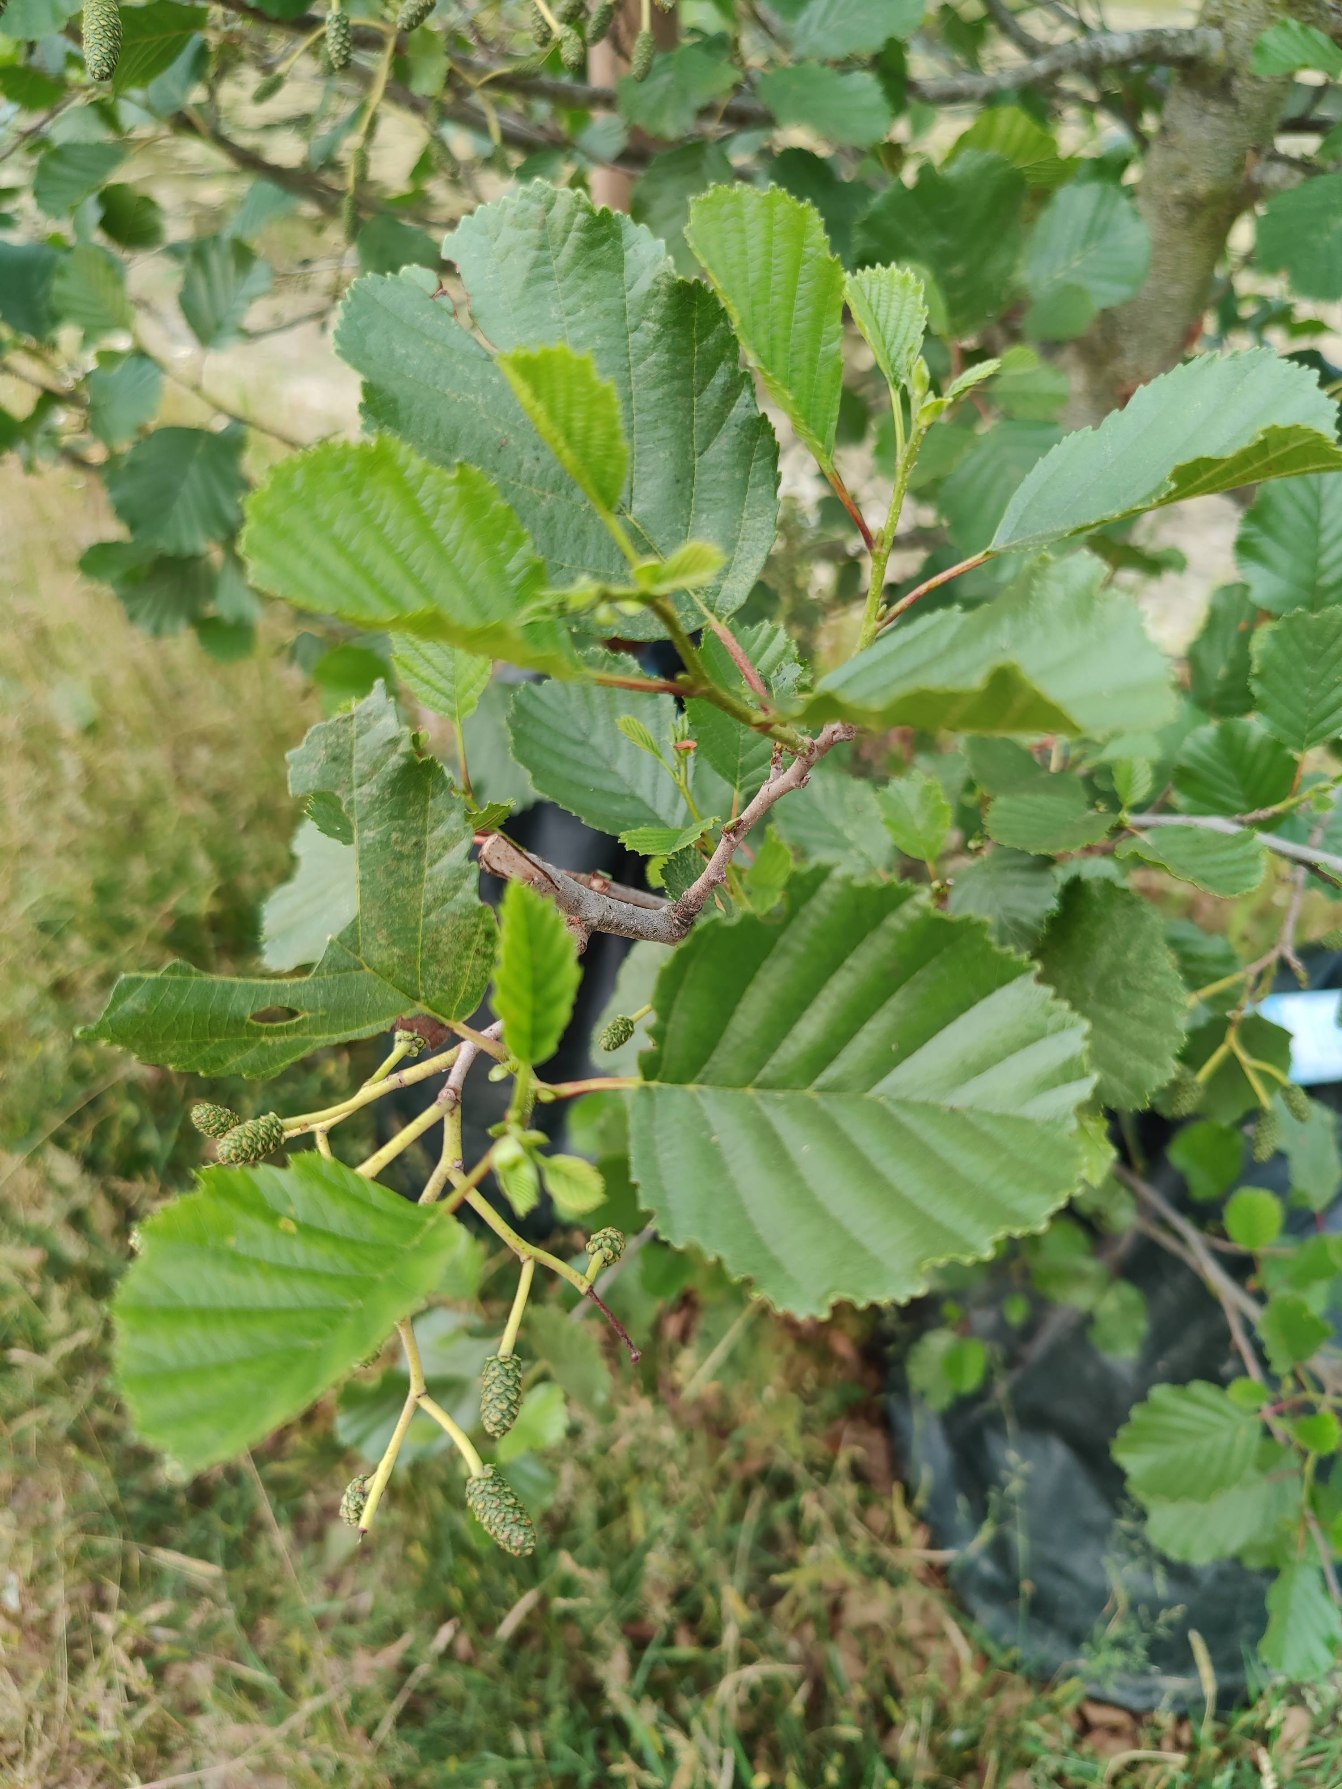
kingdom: Plantae
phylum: Tracheophyta
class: Magnoliopsida
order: Fagales
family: Betulaceae
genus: Alnus
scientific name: Alnus glutinosa
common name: Rød-el
